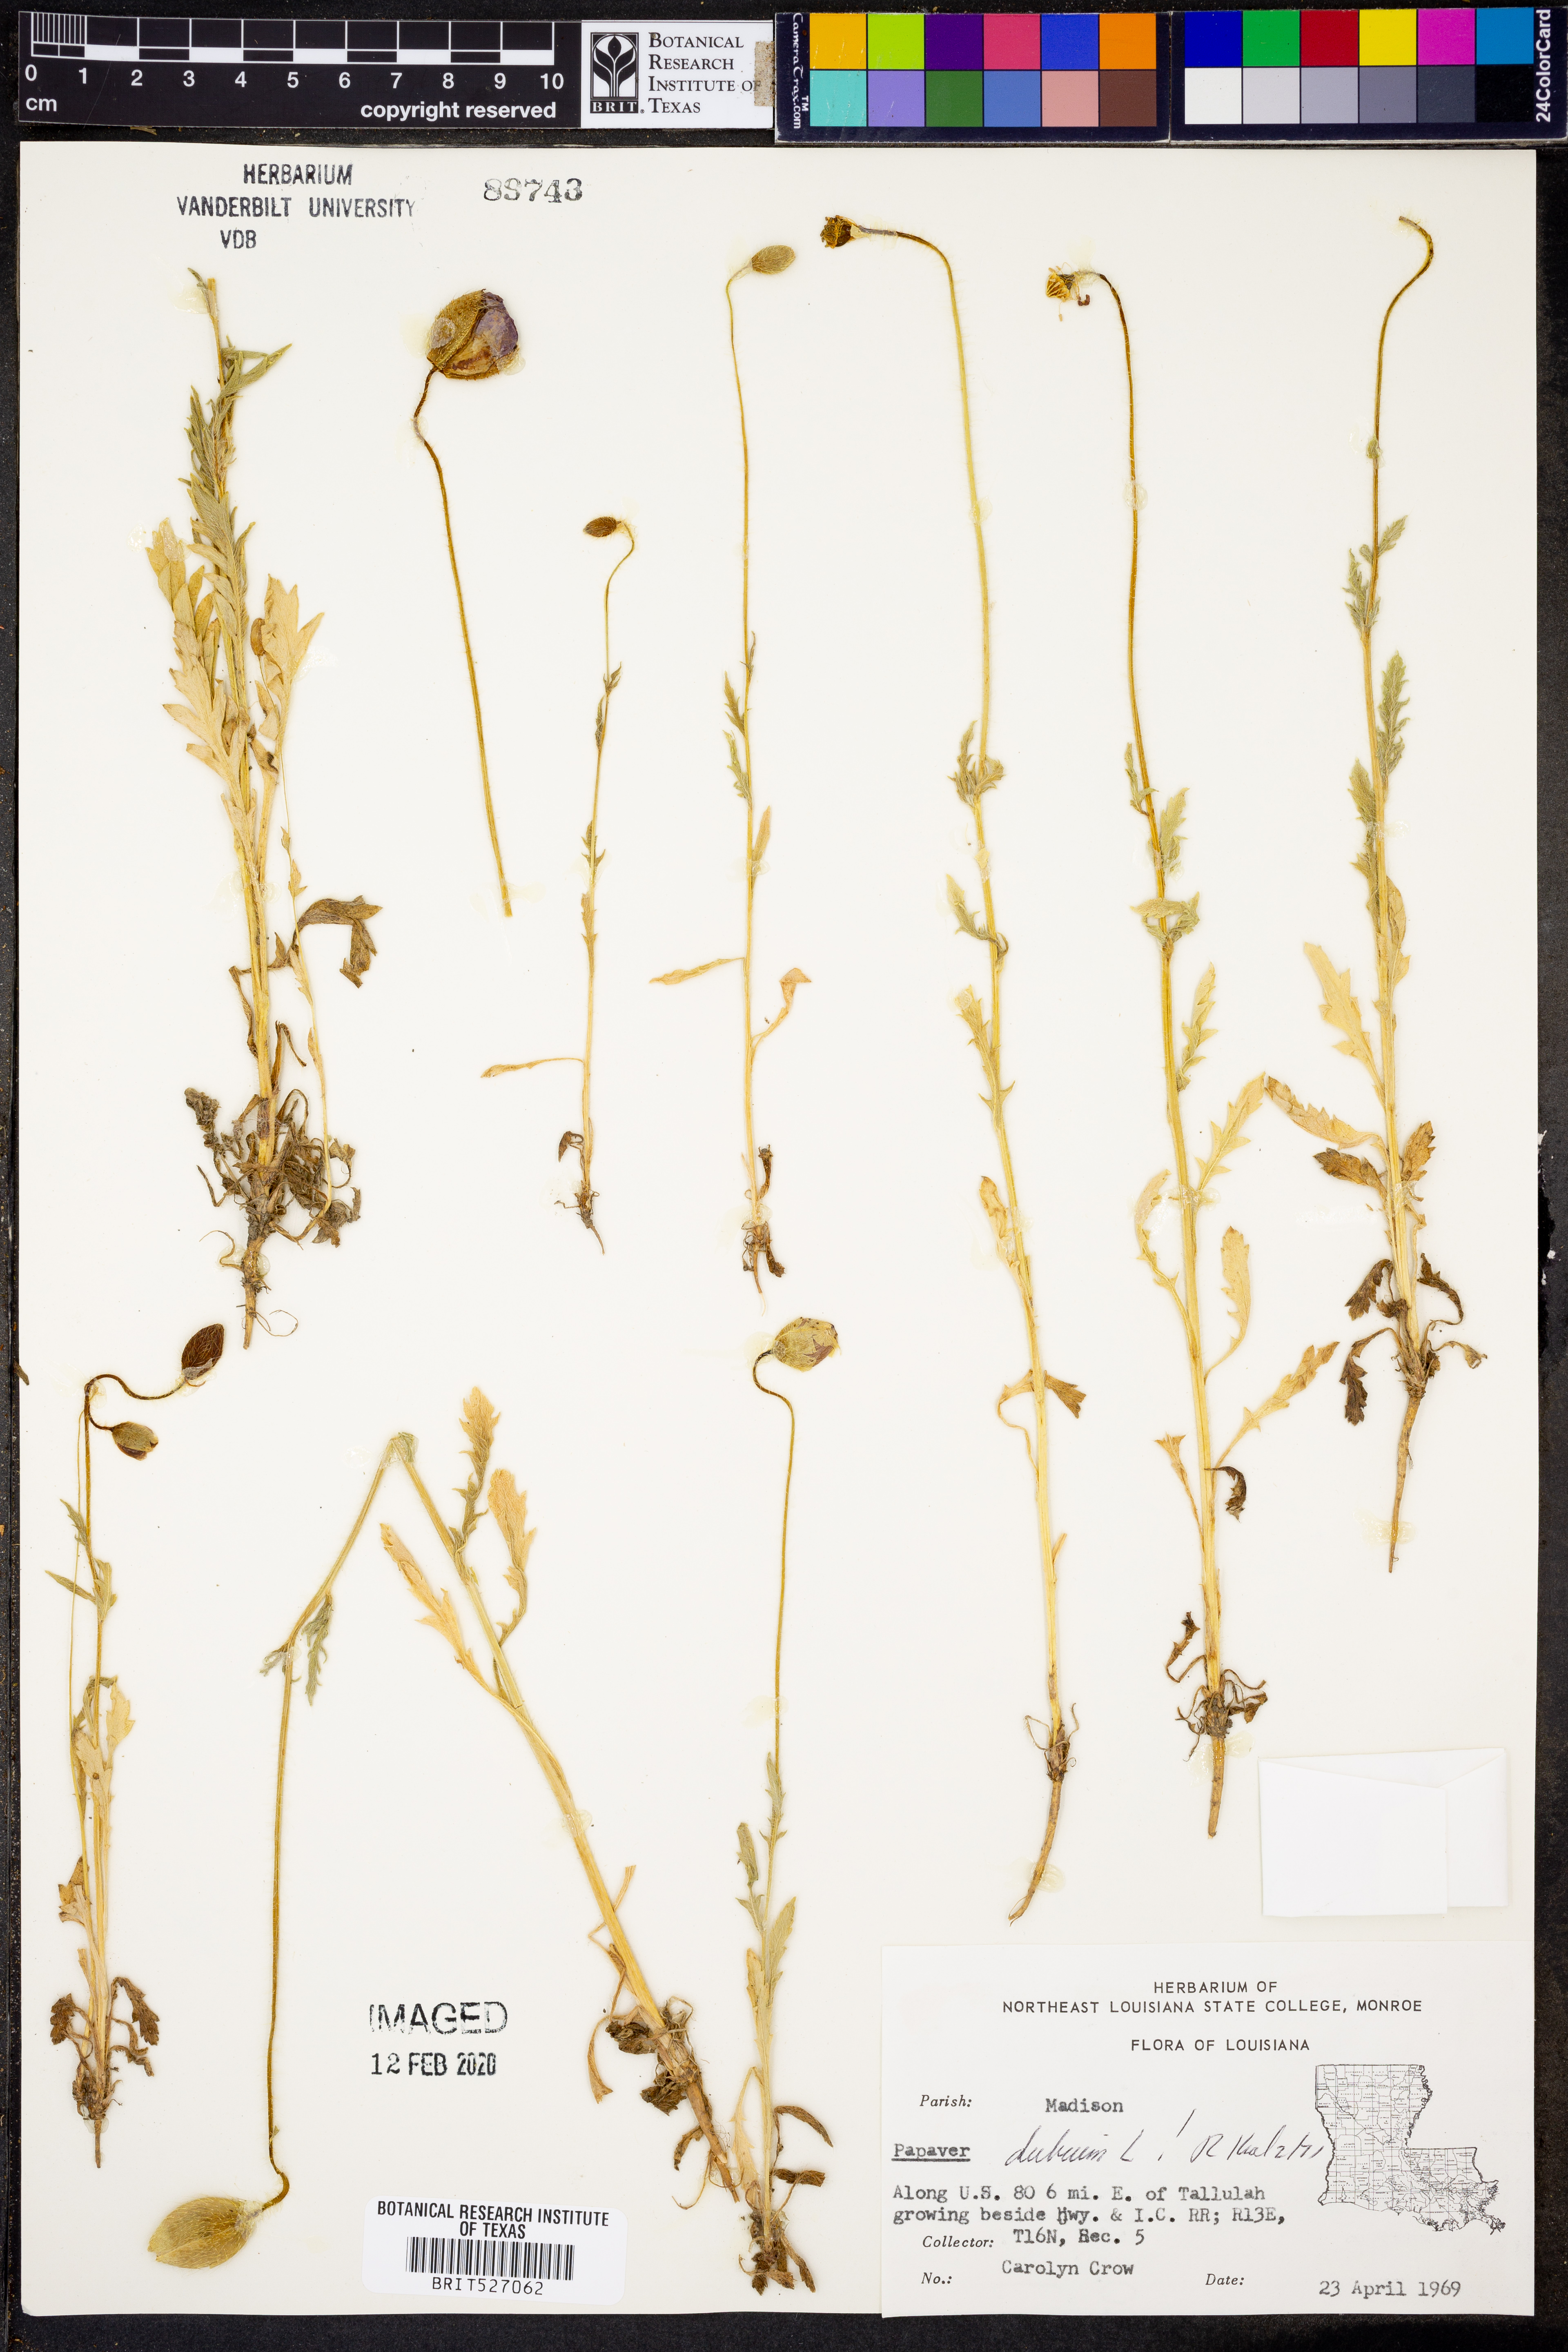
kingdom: Plantae
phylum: Tracheophyta
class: Magnoliopsida
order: Ranunculales
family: Papaveraceae
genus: Papaver
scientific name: Papaver dubium
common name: Long-headed poppy
